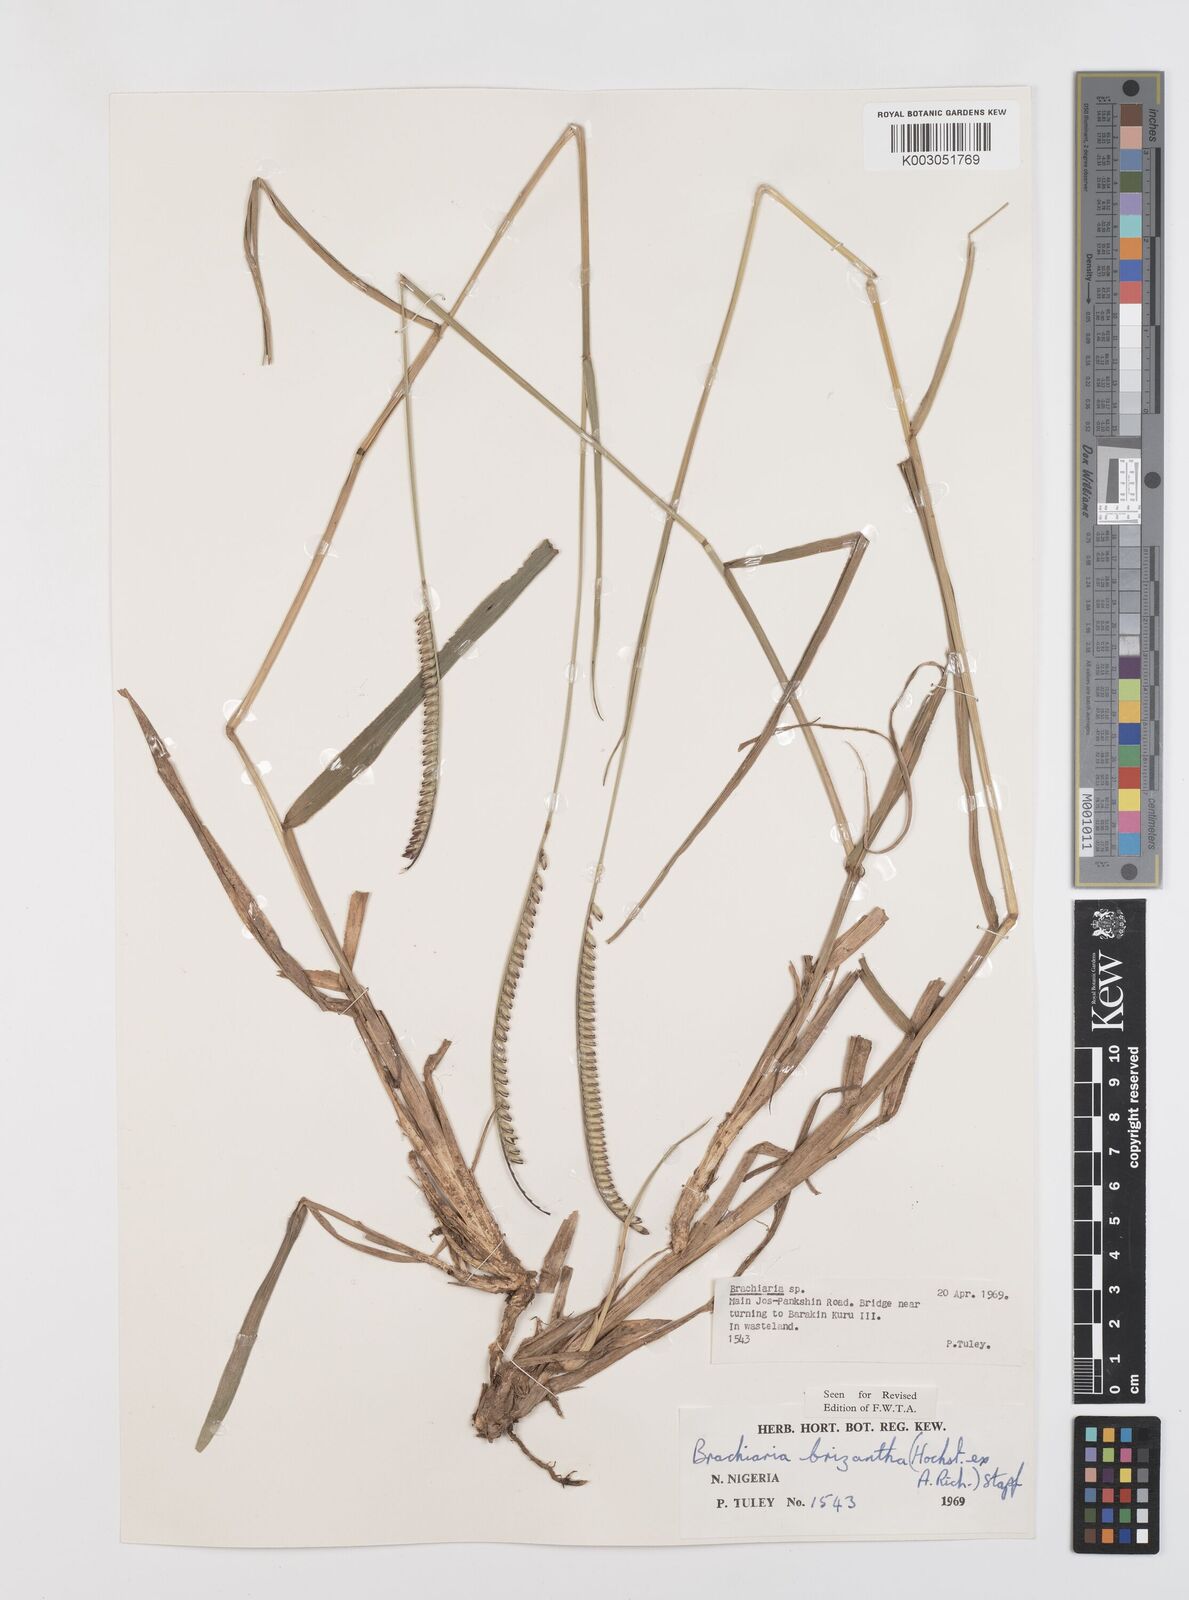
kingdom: Plantae
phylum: Tracheophyta
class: Liliopsida
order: Poales
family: Poaceae
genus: Urochloa
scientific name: Urochloa brizantha
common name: Palisade signalgrass
